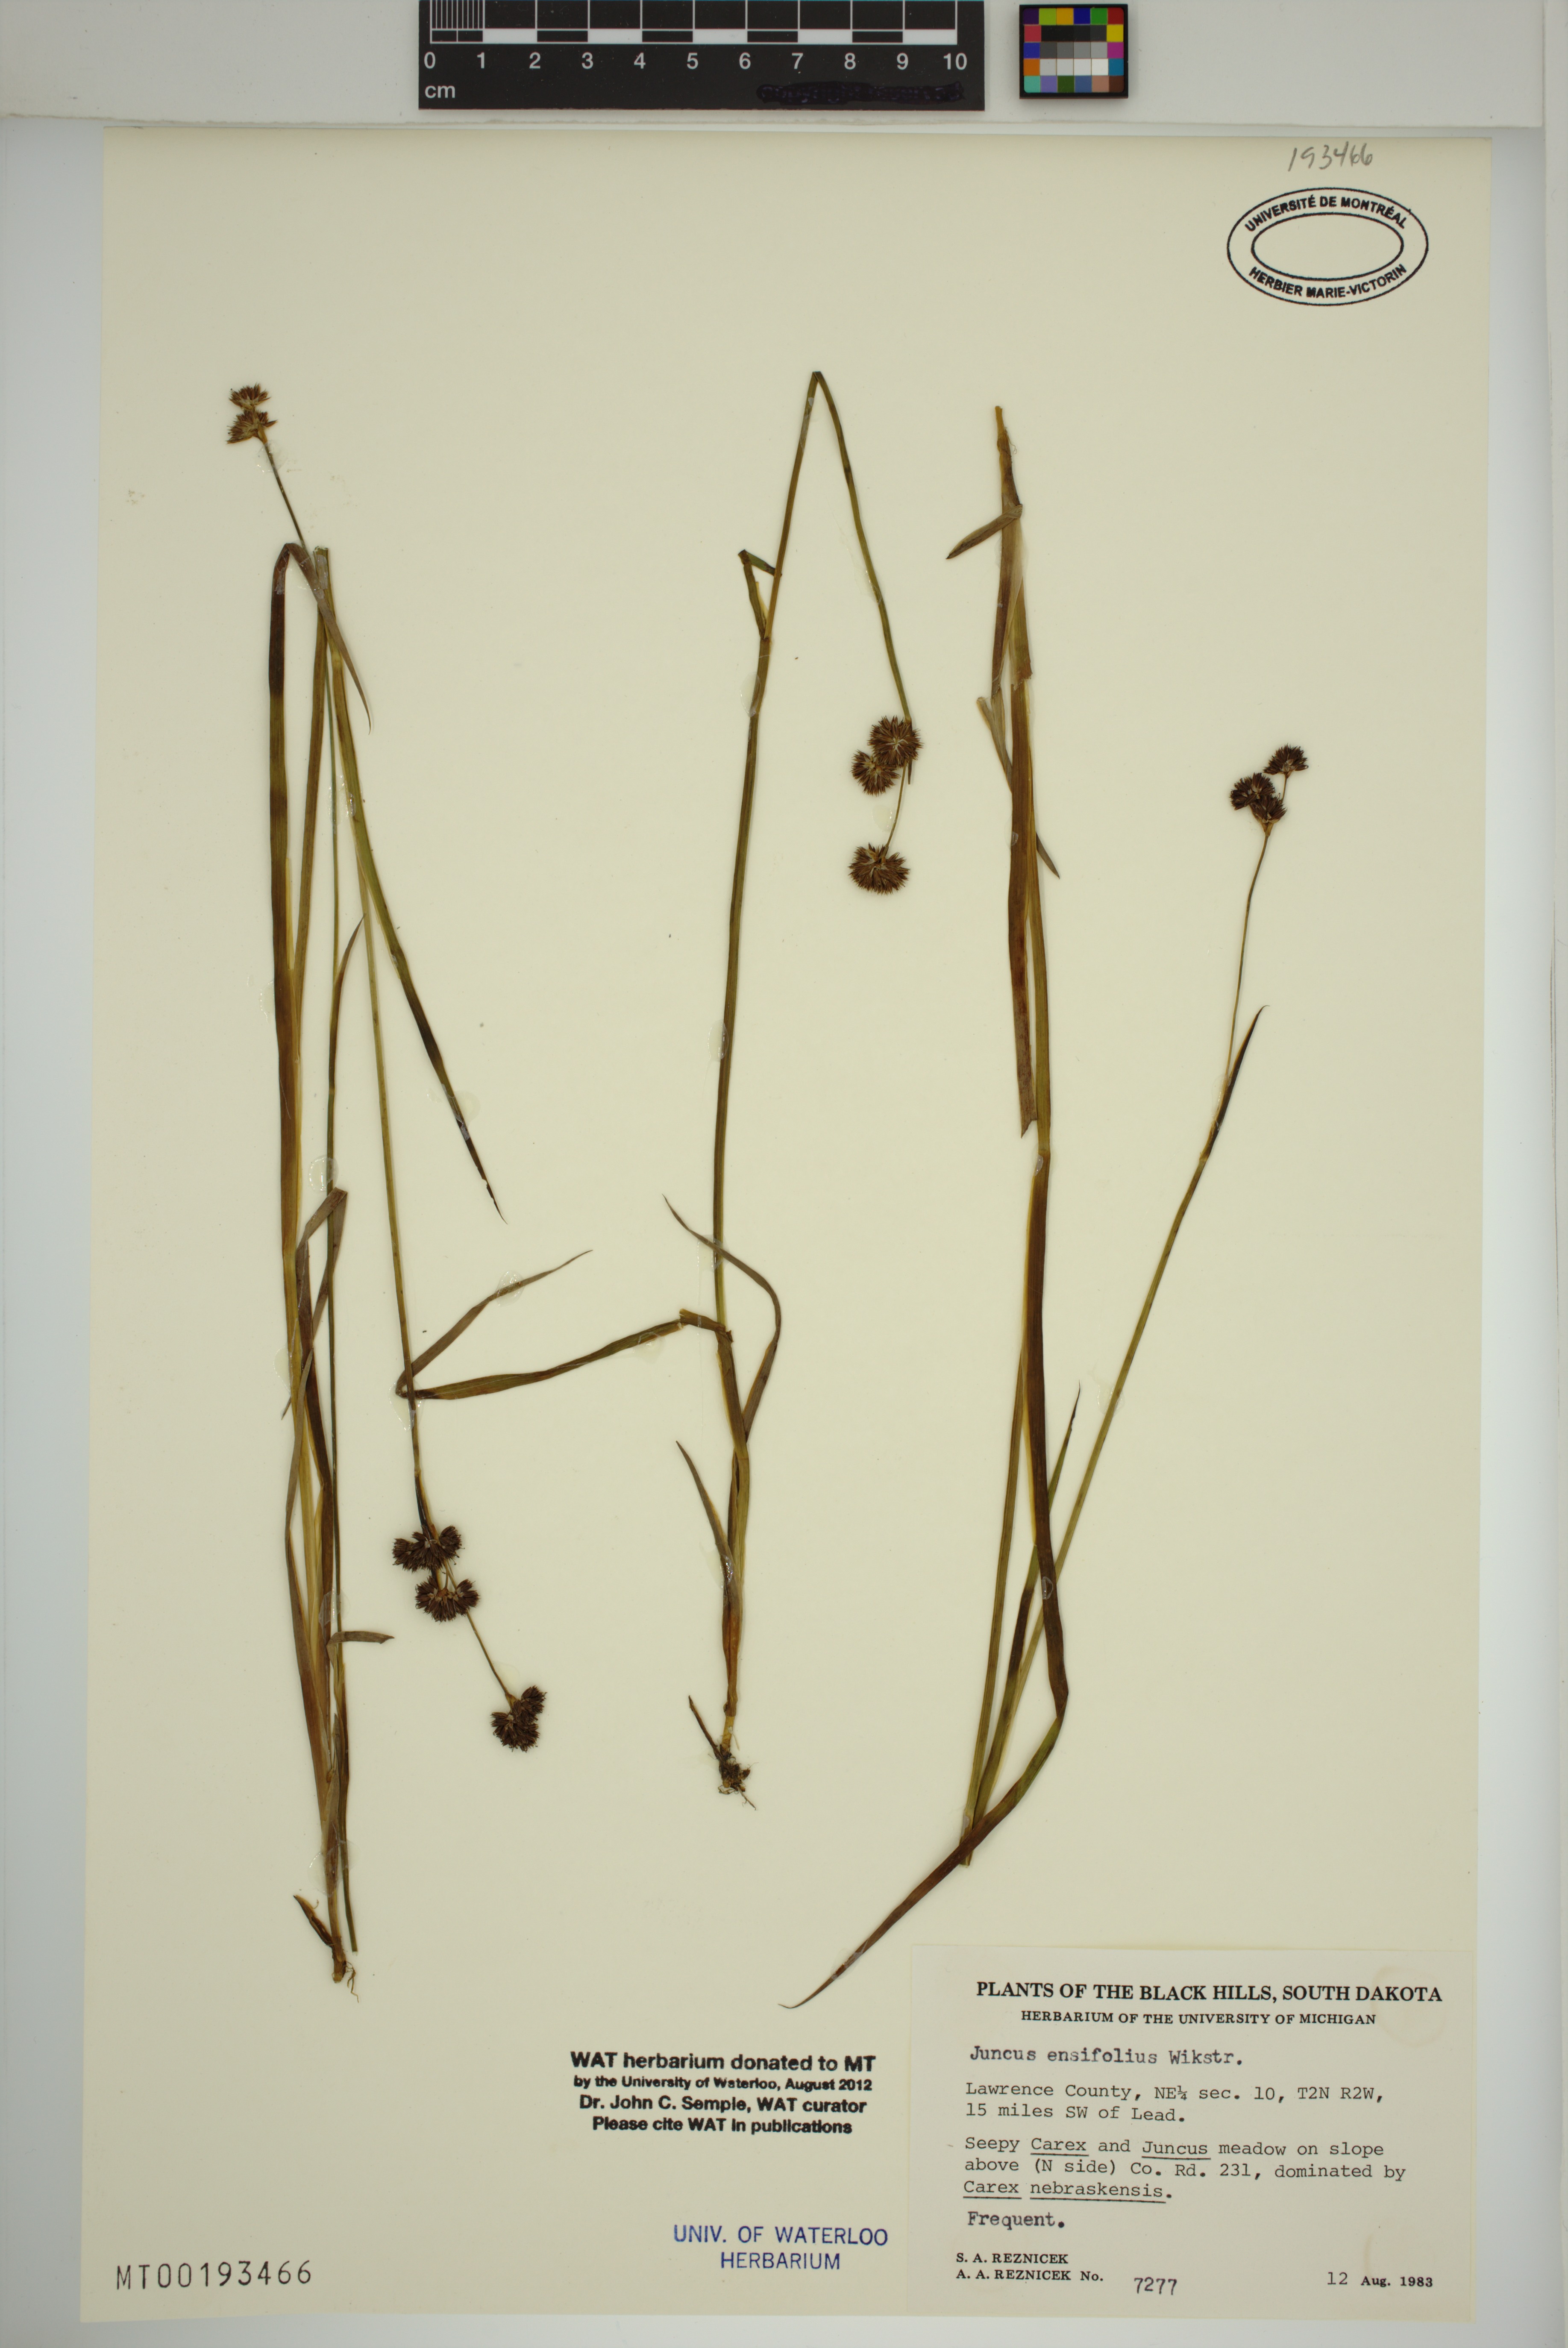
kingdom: Plantae
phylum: Tracheophyta
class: Liliopsida
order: Poales
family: Juncaceae
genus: Juncus
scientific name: Juncus ensifolius
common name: Sword-leaved rush
